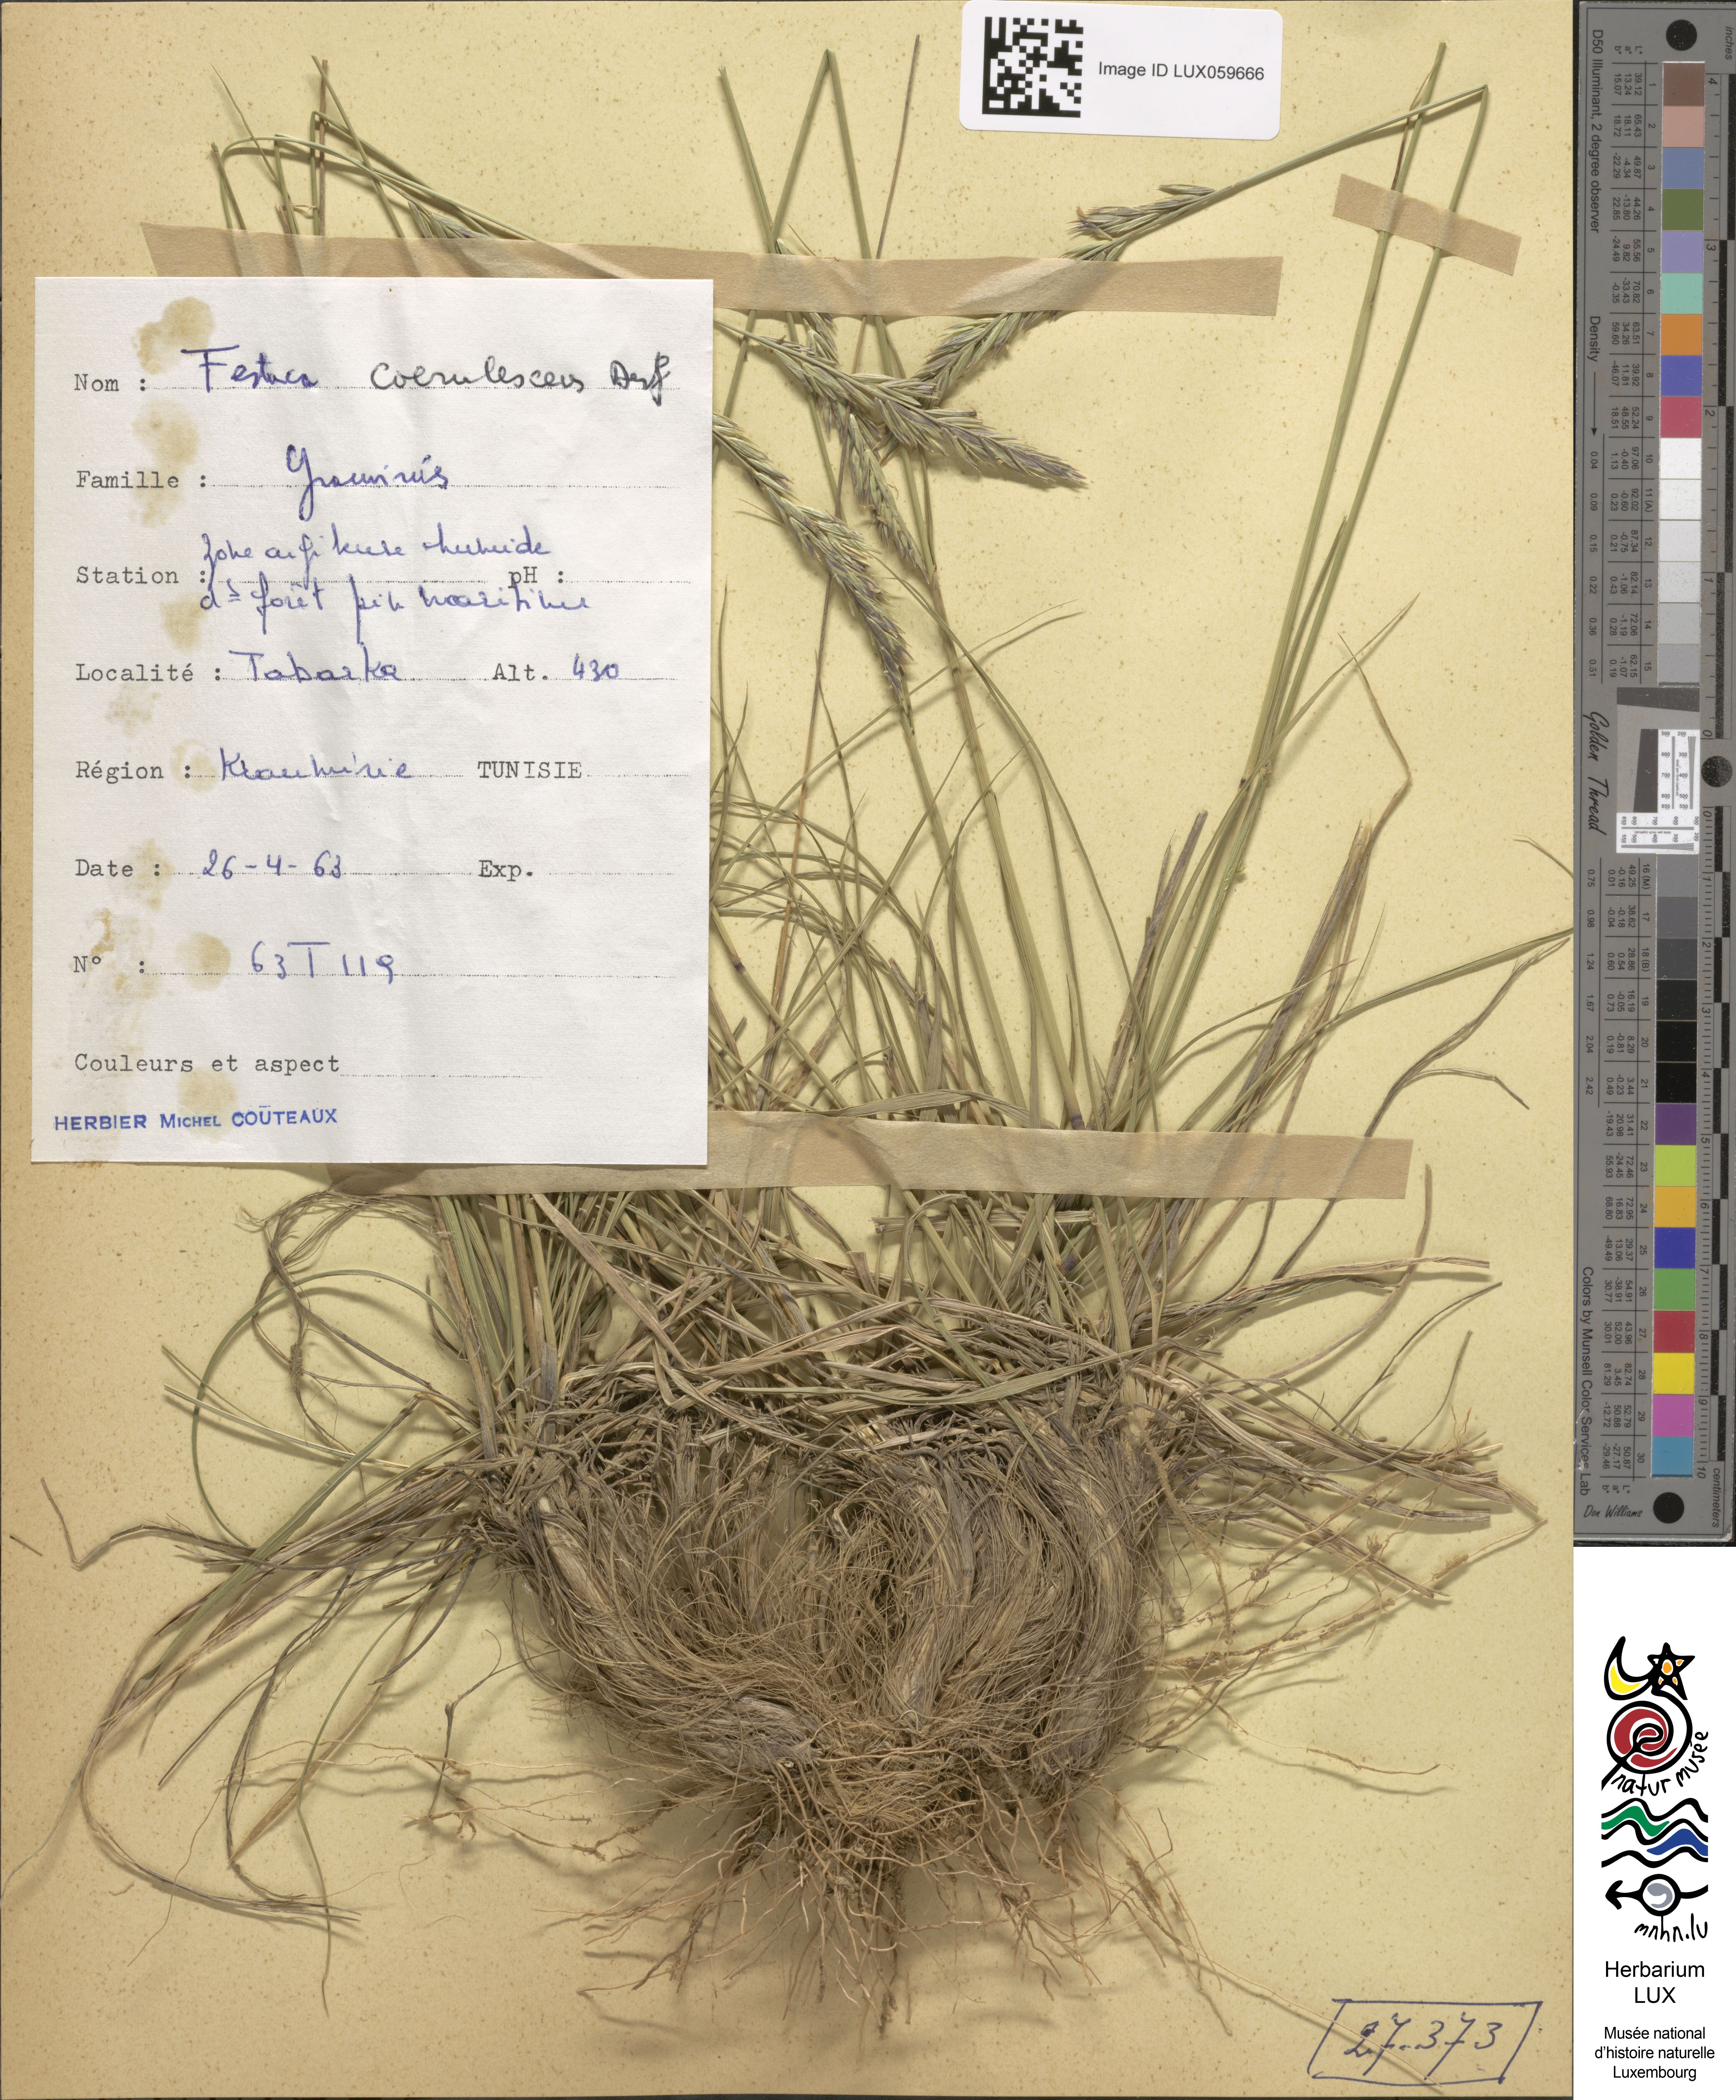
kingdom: Plantae
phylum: Tracheophyta
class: Liliopsida
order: Poales
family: Poaceae
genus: Festuca
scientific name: Festuca caerulescens
